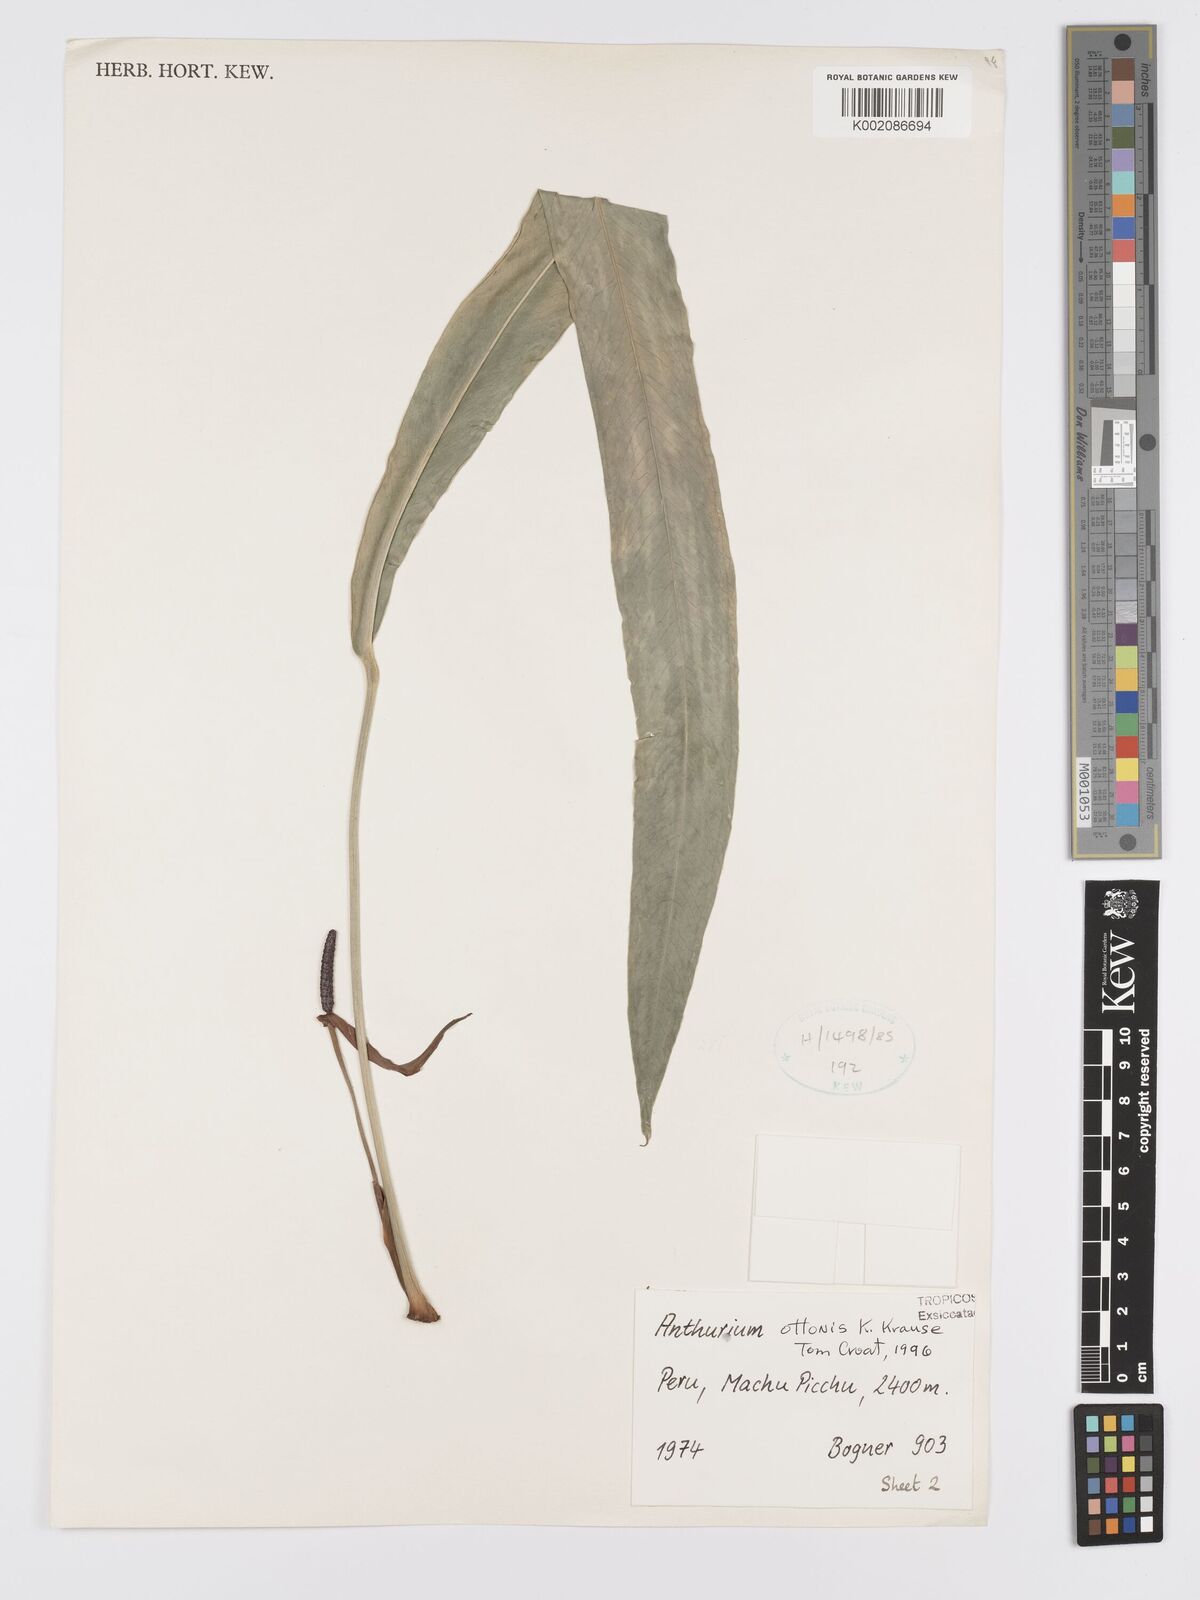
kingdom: Plantae
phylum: Tracheophyta
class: Liliopsida
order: Alismatales
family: Araceae
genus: Anthurium
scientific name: Anthurium ottonis
